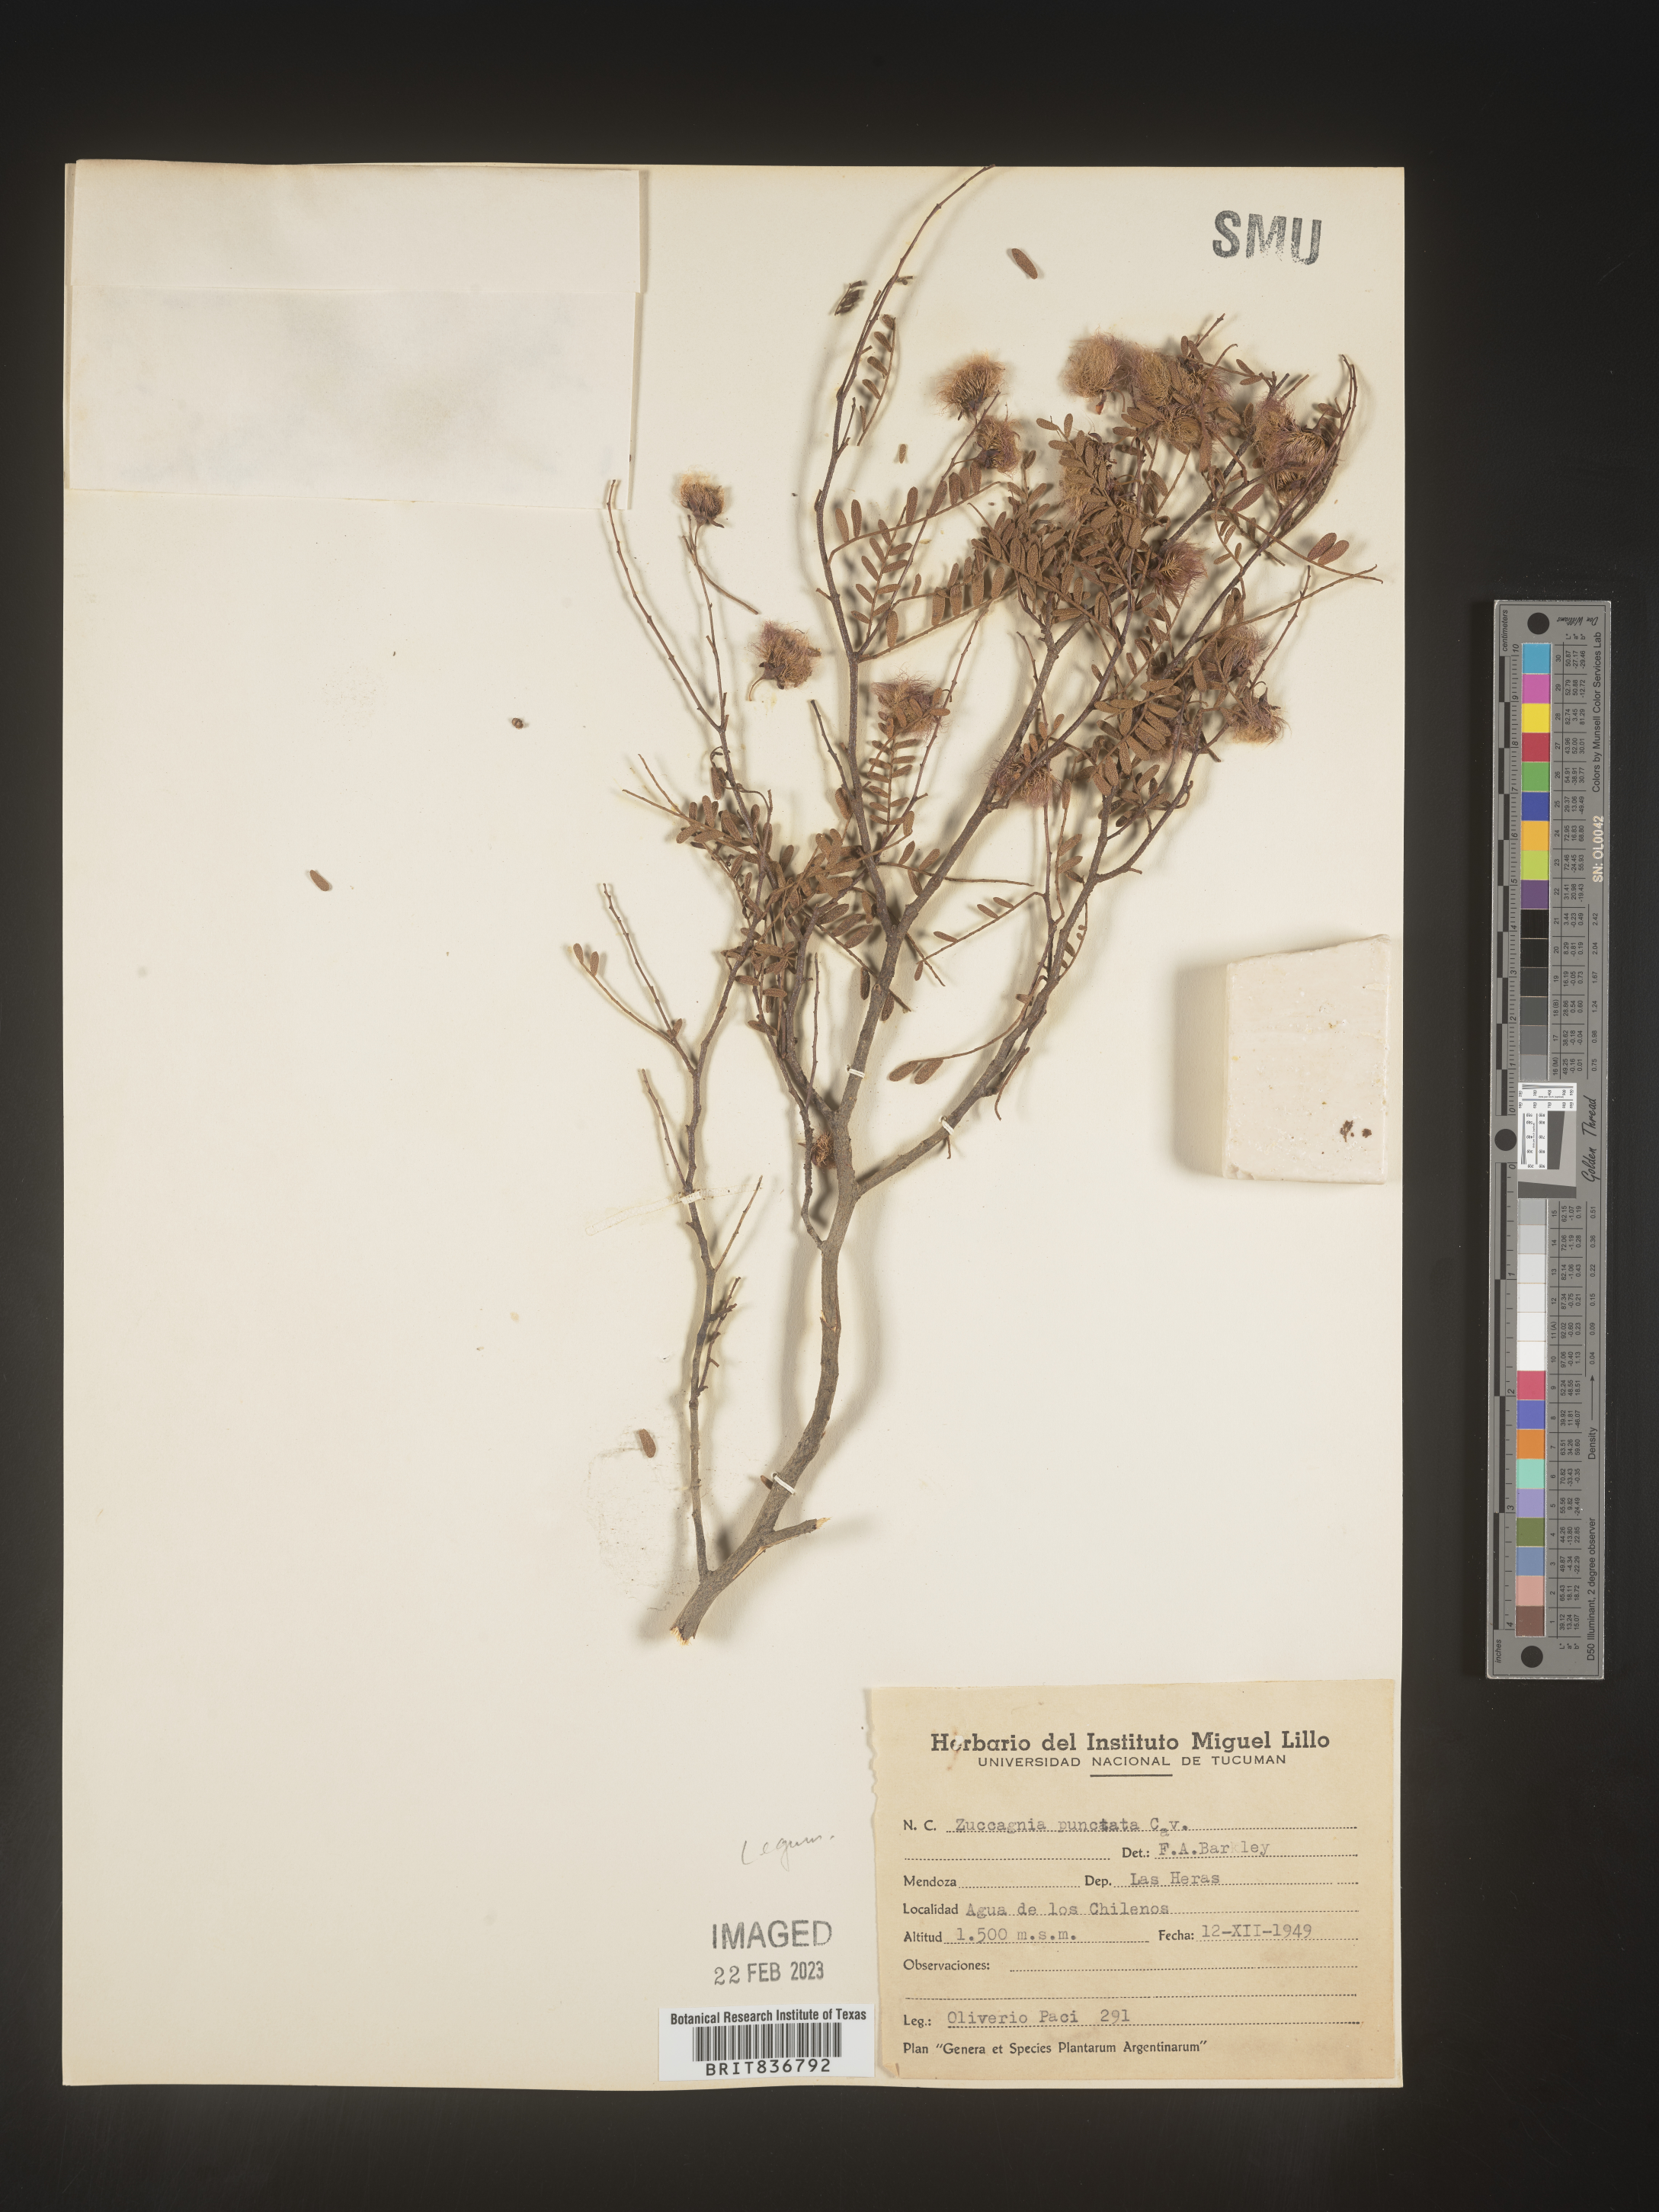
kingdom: Plantae
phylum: Tracheophyta
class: Magnoliopsida
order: Fabales
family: Fabaceae
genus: Zuccagnia
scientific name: Zuccagnia
